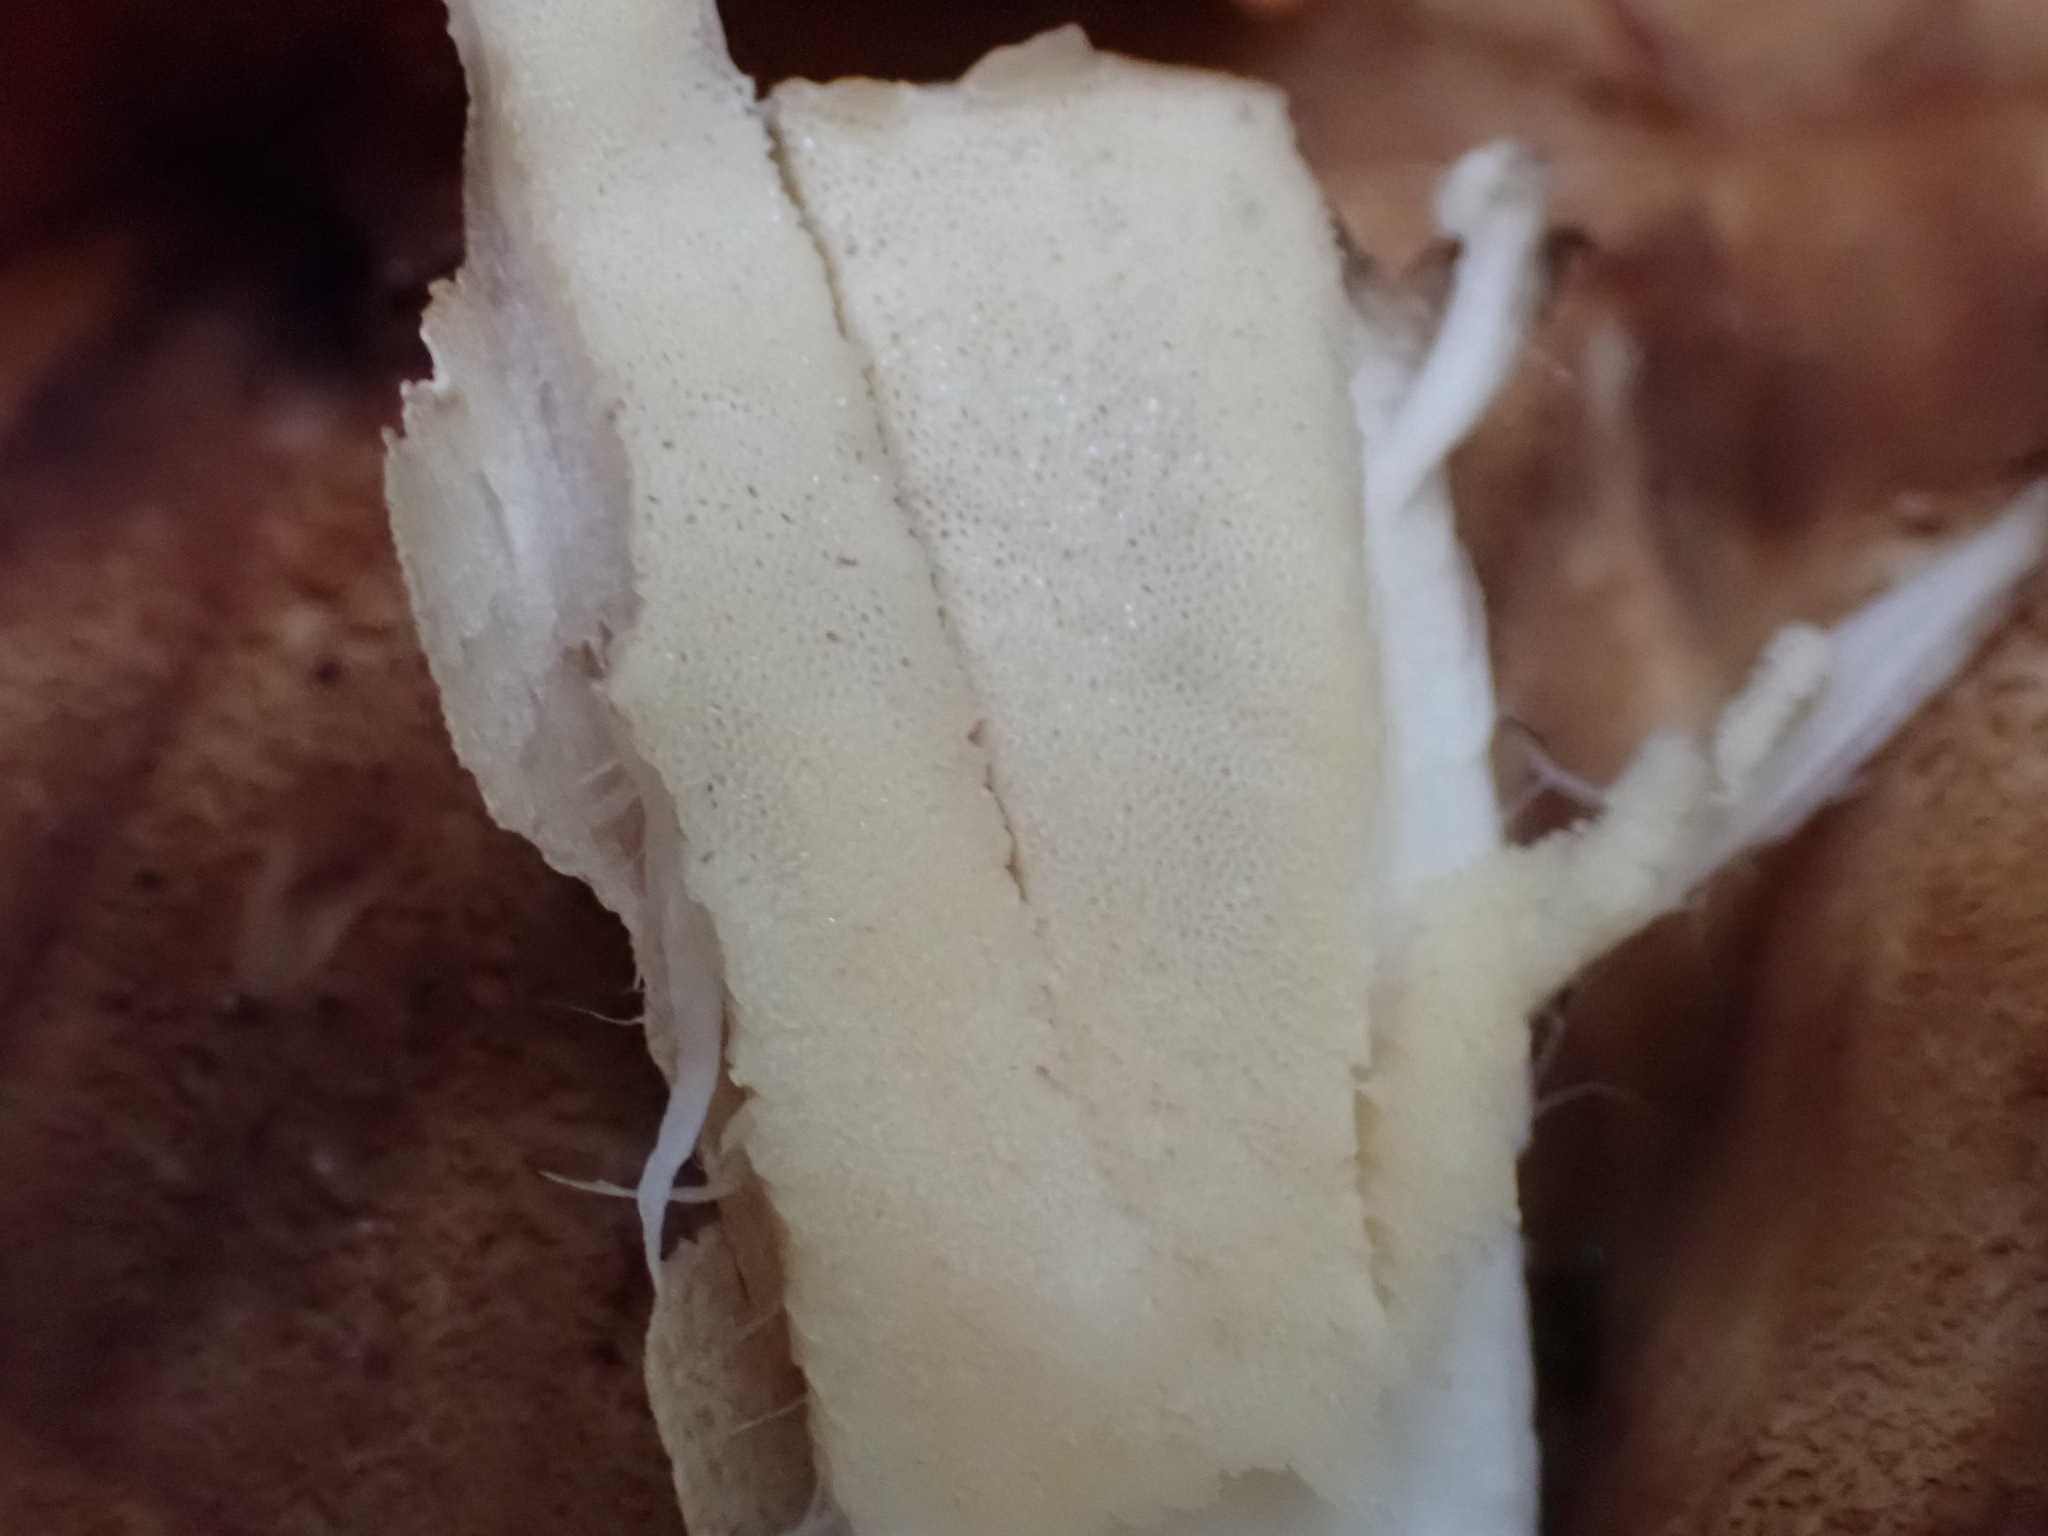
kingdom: Fungi
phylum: Basidiomycota
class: Agaricomycetes
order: Polyporales
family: Meripilaceae
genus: Meripilus
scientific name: Meripilus giganteus
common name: kæmpeporesvamp
